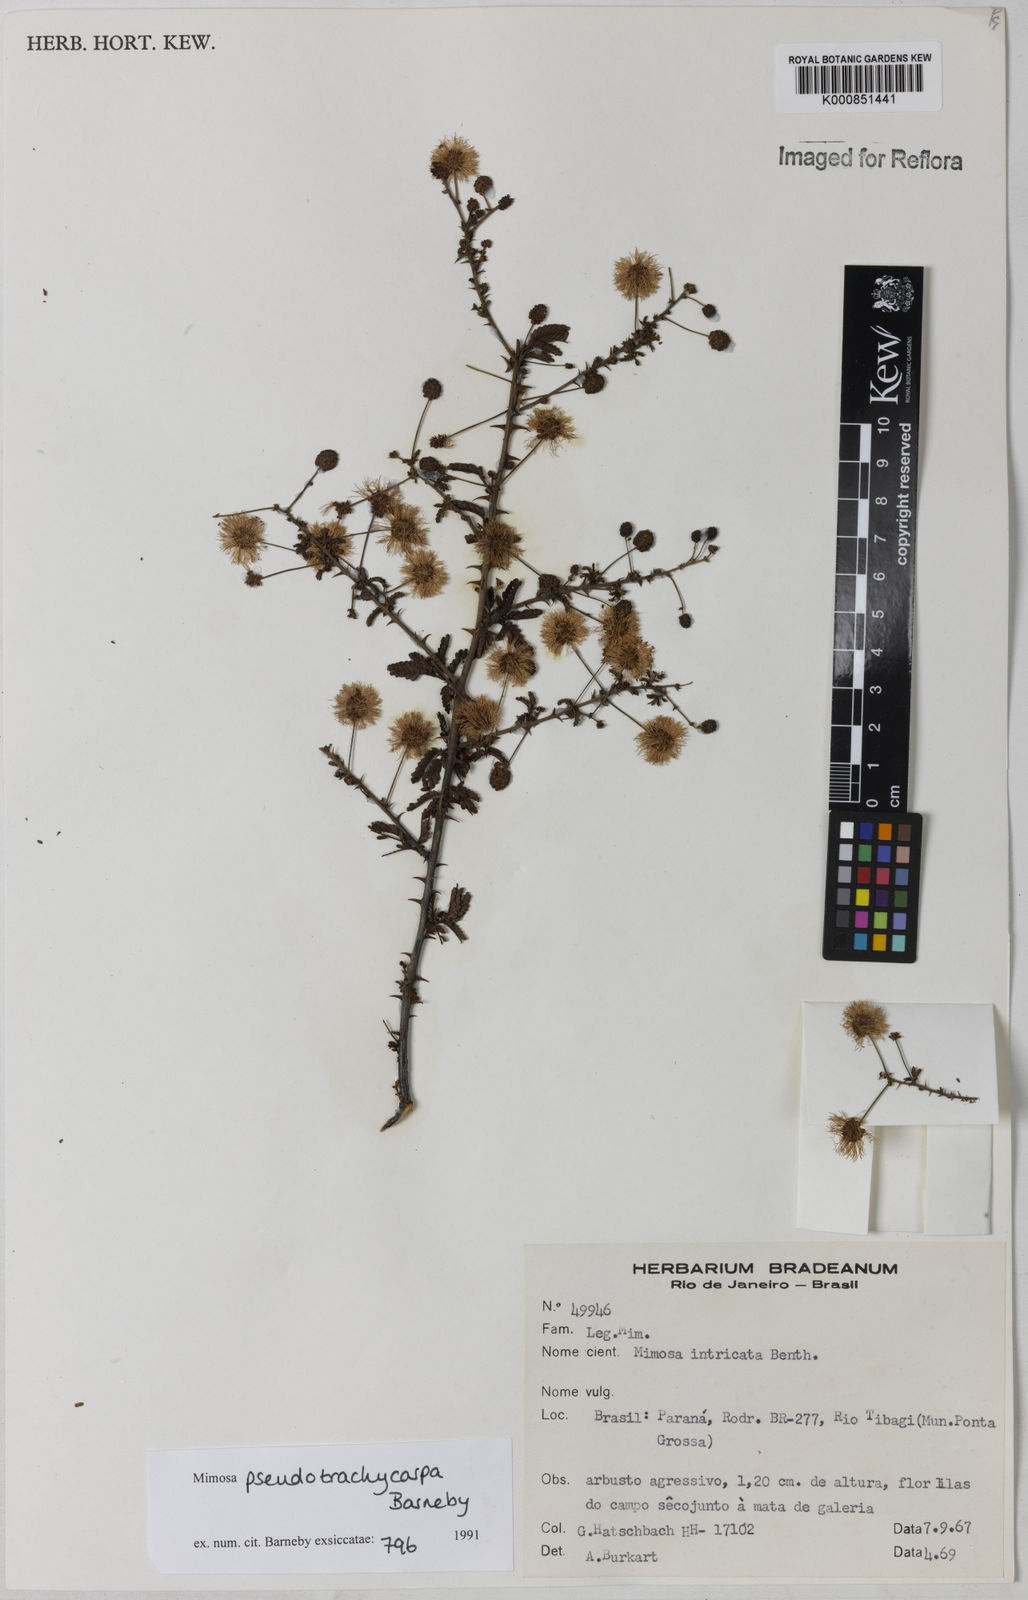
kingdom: Plantae
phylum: Tracheophyta
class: Magnoliopsida
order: Fabales
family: Fabaceae
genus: Mimosa
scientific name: Mimosa pseudotrachycarpa
